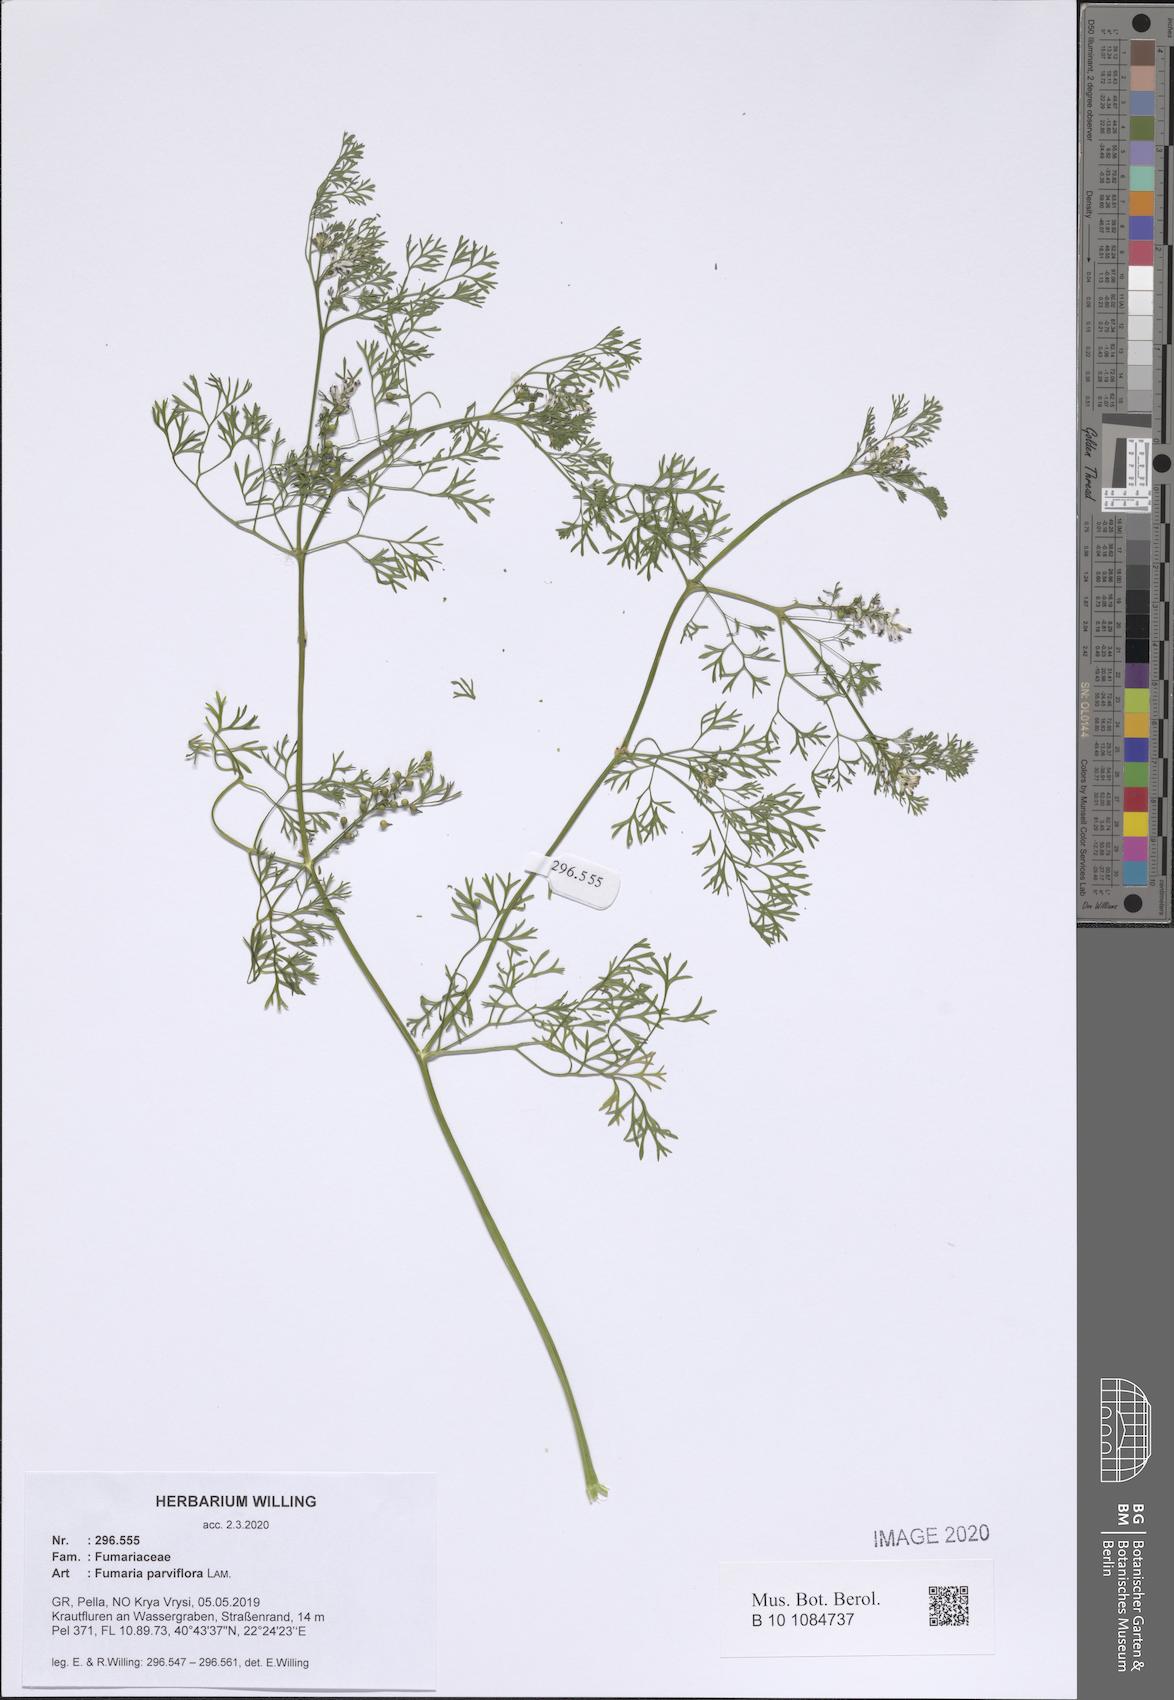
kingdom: Plantae
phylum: Tracheophyta
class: Magnoliopsida
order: Ranunculales
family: Papaveraceae
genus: Fumaria
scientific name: Fumaria parviflora
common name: Fine-leaved fumitory
